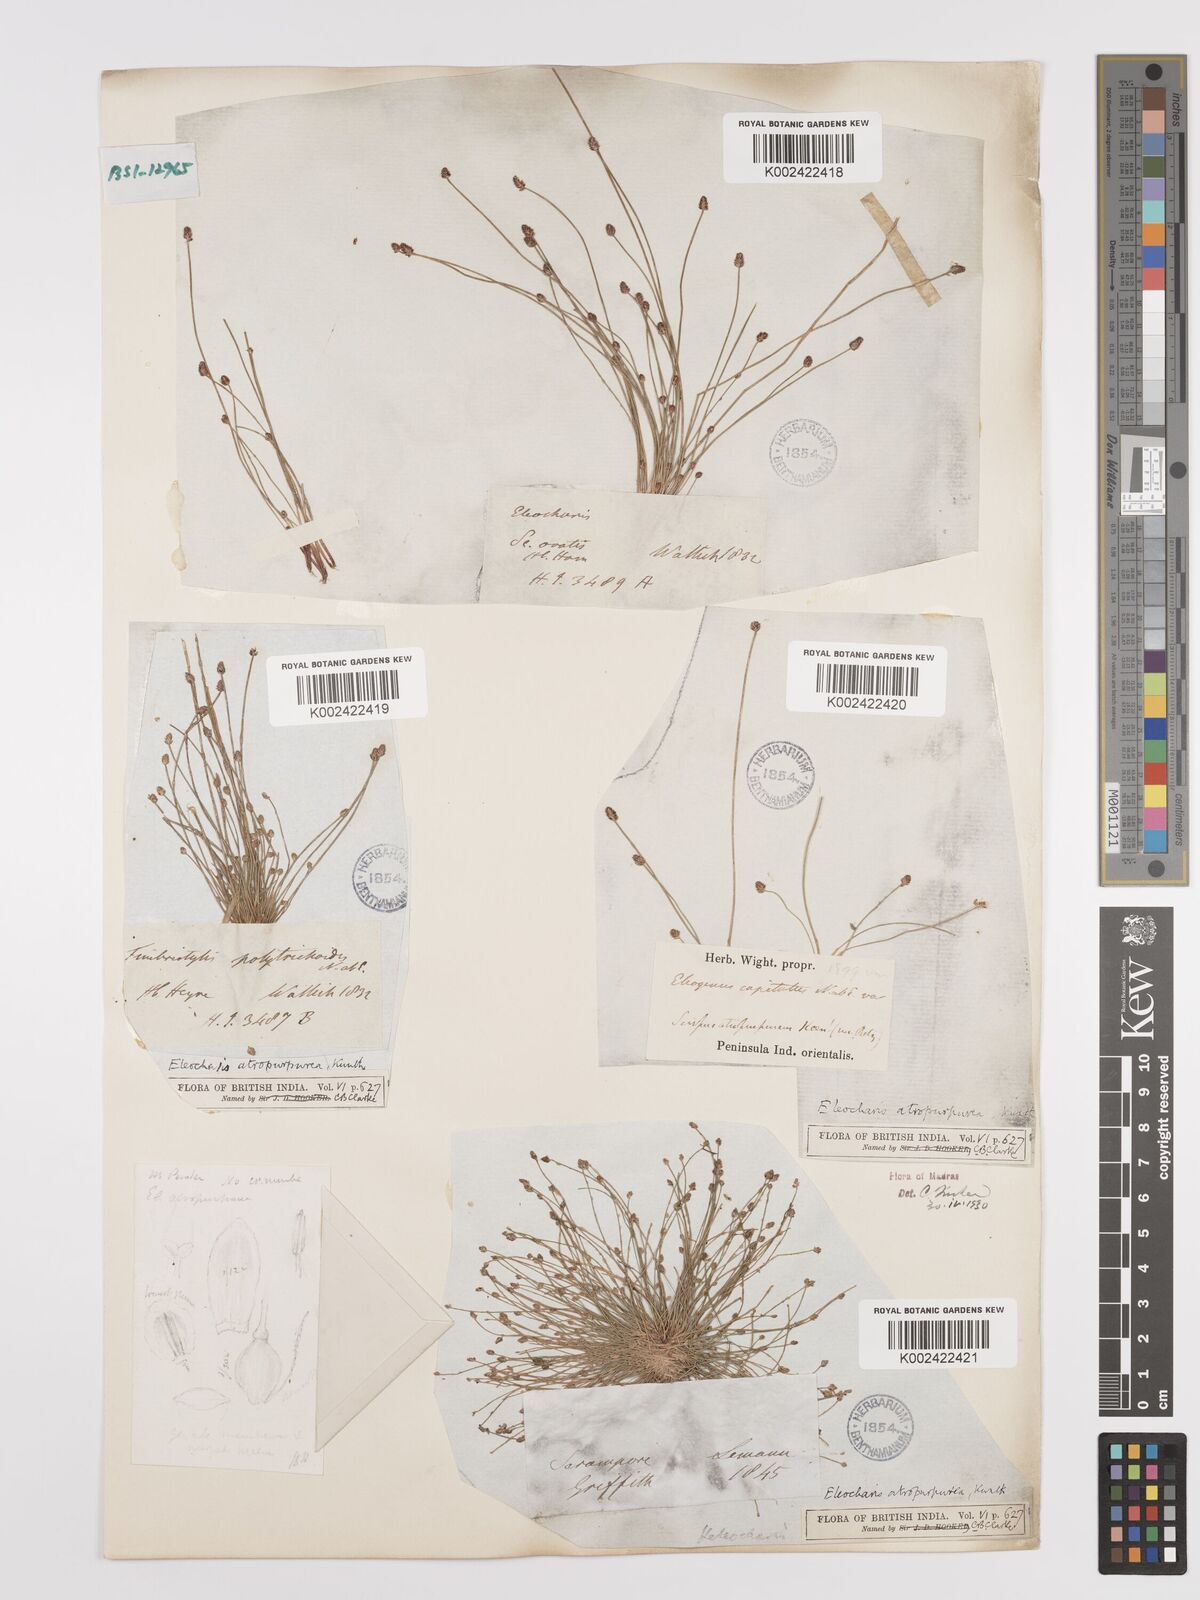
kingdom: Plantae
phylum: Tracheophyta
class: Liliopsida
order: Poales
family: Cyperaceae
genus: Eleocharis
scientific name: Eleocharis atropurpurea
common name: Purple spikerush
